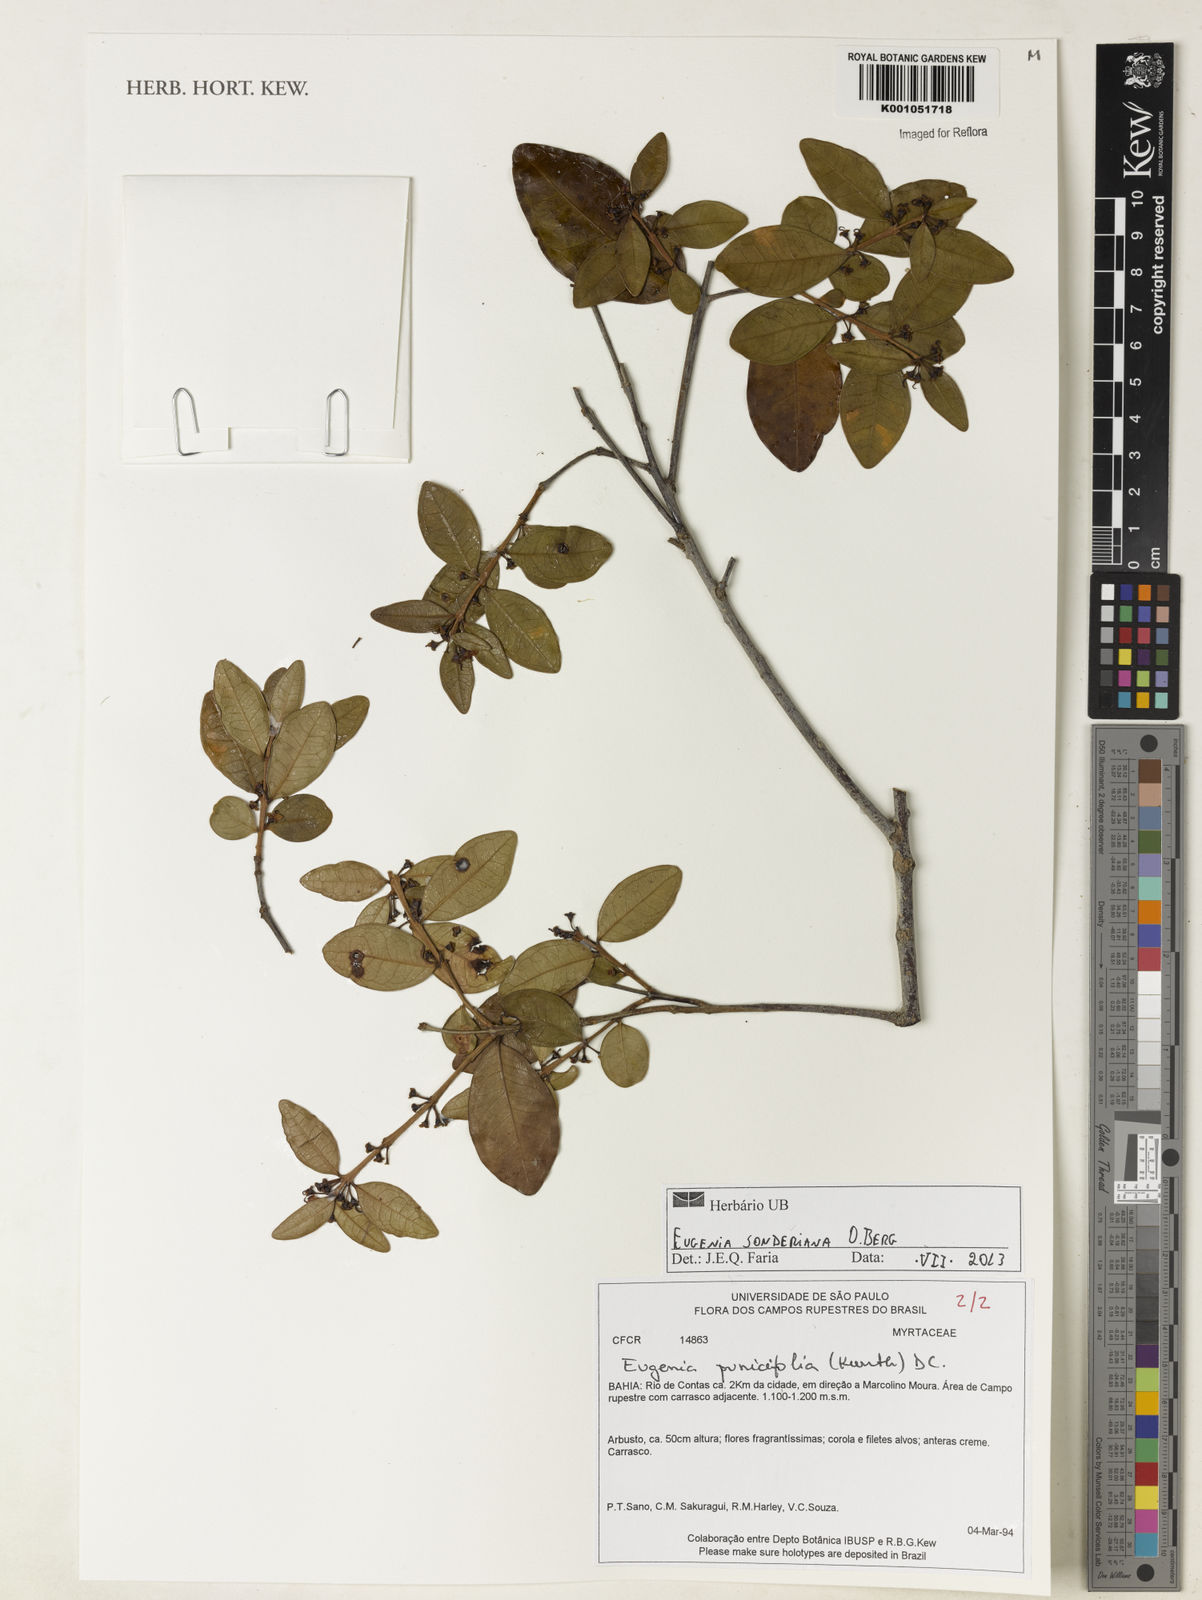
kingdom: Plantae
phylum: Tracheophyta
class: Magnoliopsida
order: Myrtales
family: Myrtaceae
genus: Eugenia
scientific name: Eugenia sonderiana
